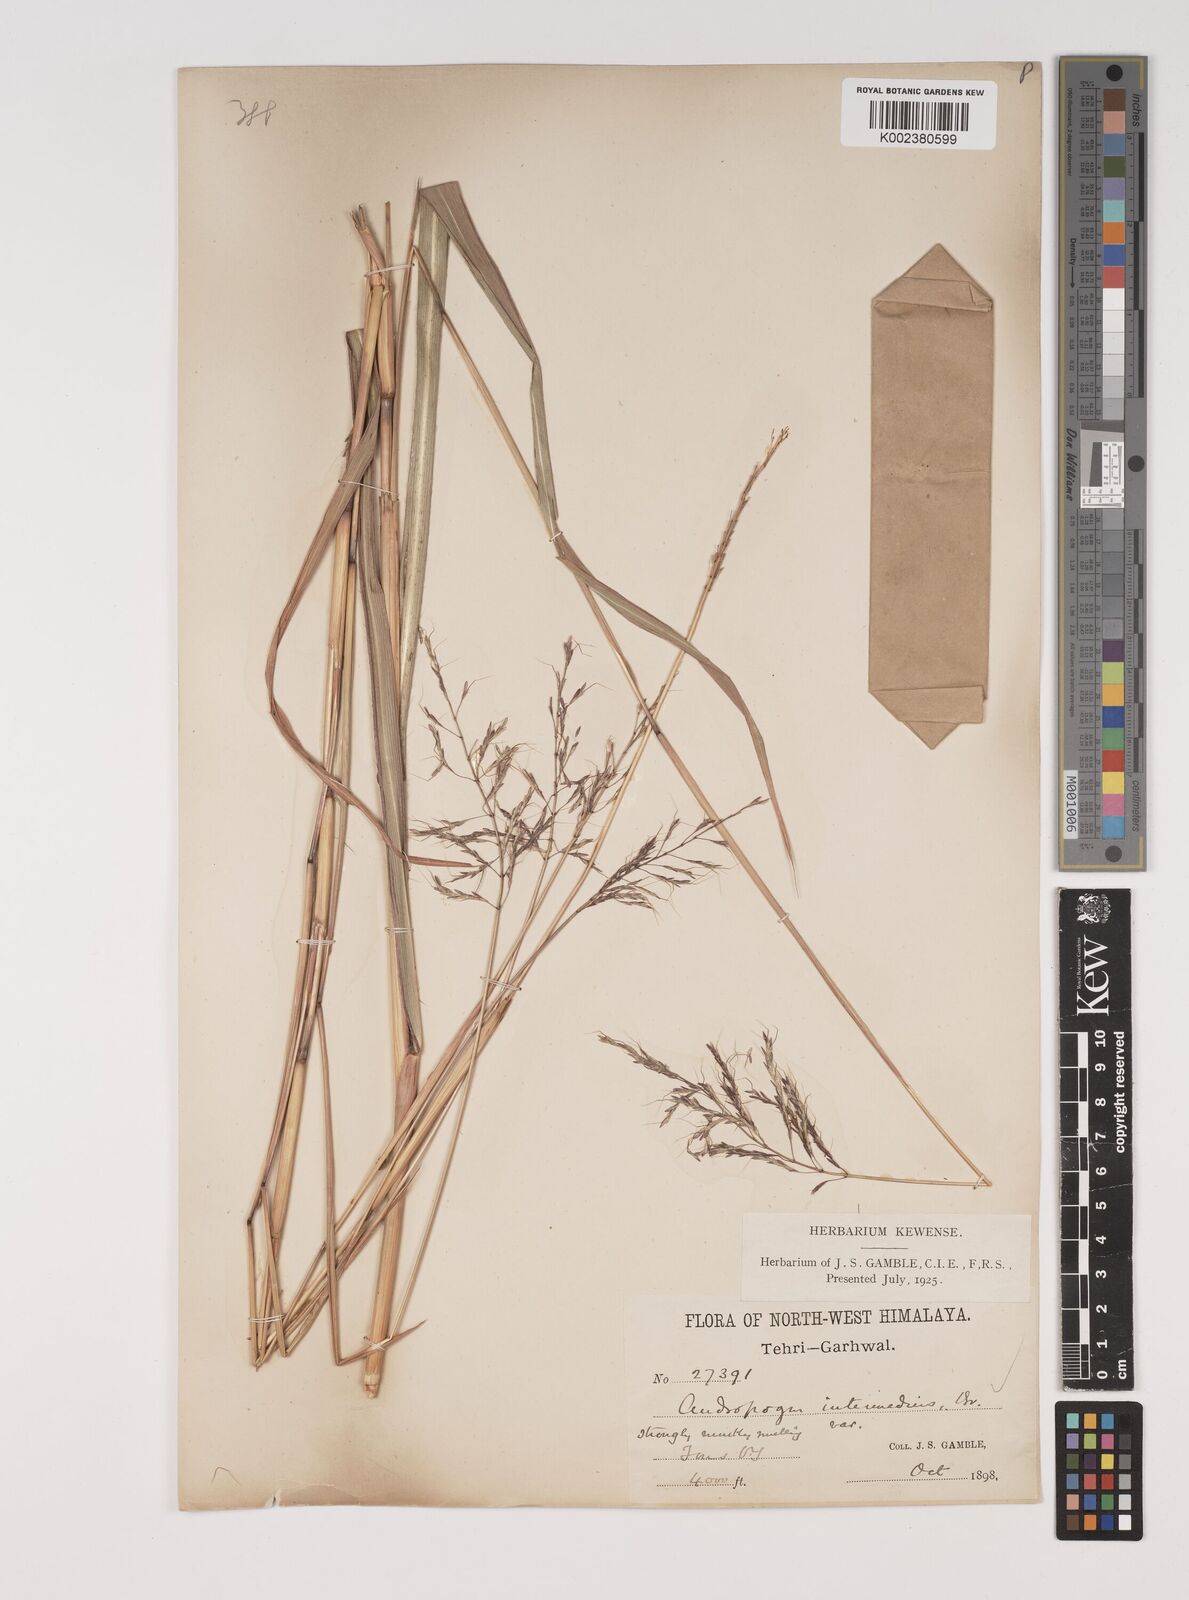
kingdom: Plantae
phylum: Tracheophyta
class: Liliopsida
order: Poales
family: Poaceae
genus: Bothriochloa
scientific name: Bothriochloa bladhii
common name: Caucasian bluestem
